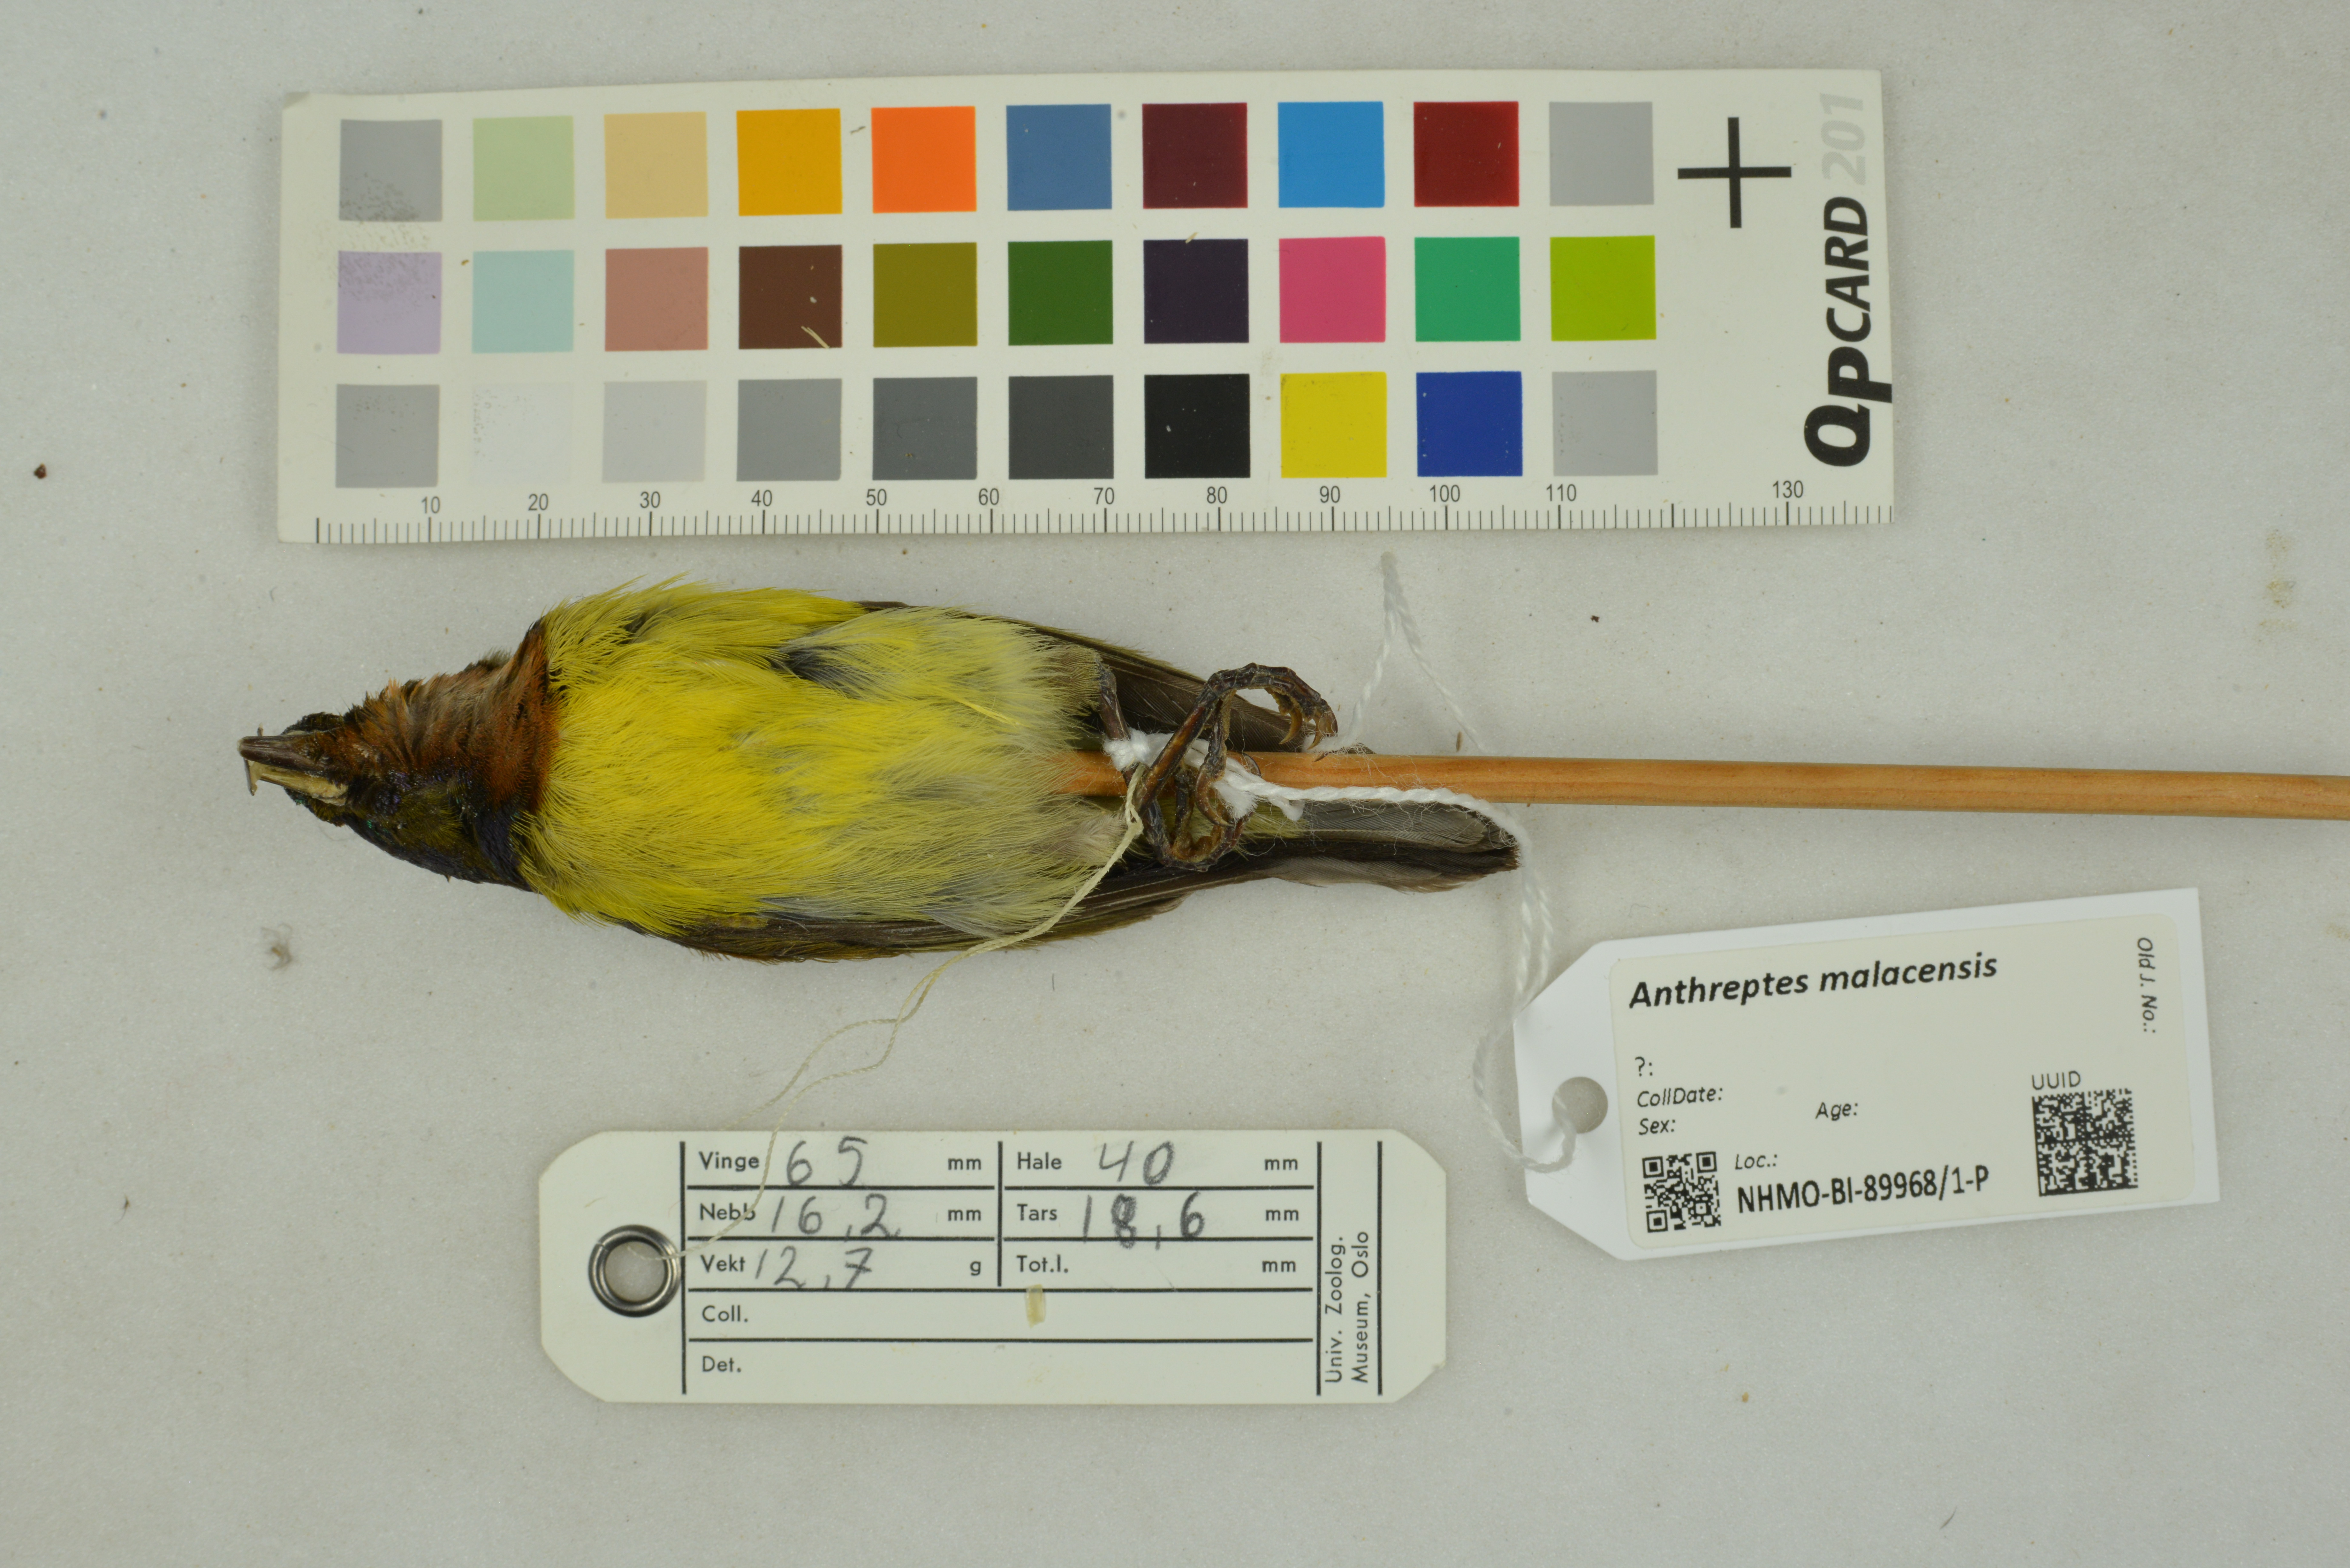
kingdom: Animalia
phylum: Chordata
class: Aves
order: Passeriformes
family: Nectariniidae
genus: Anthreptes
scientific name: Anthreptes malacensis
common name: Brown-throated sunbird
